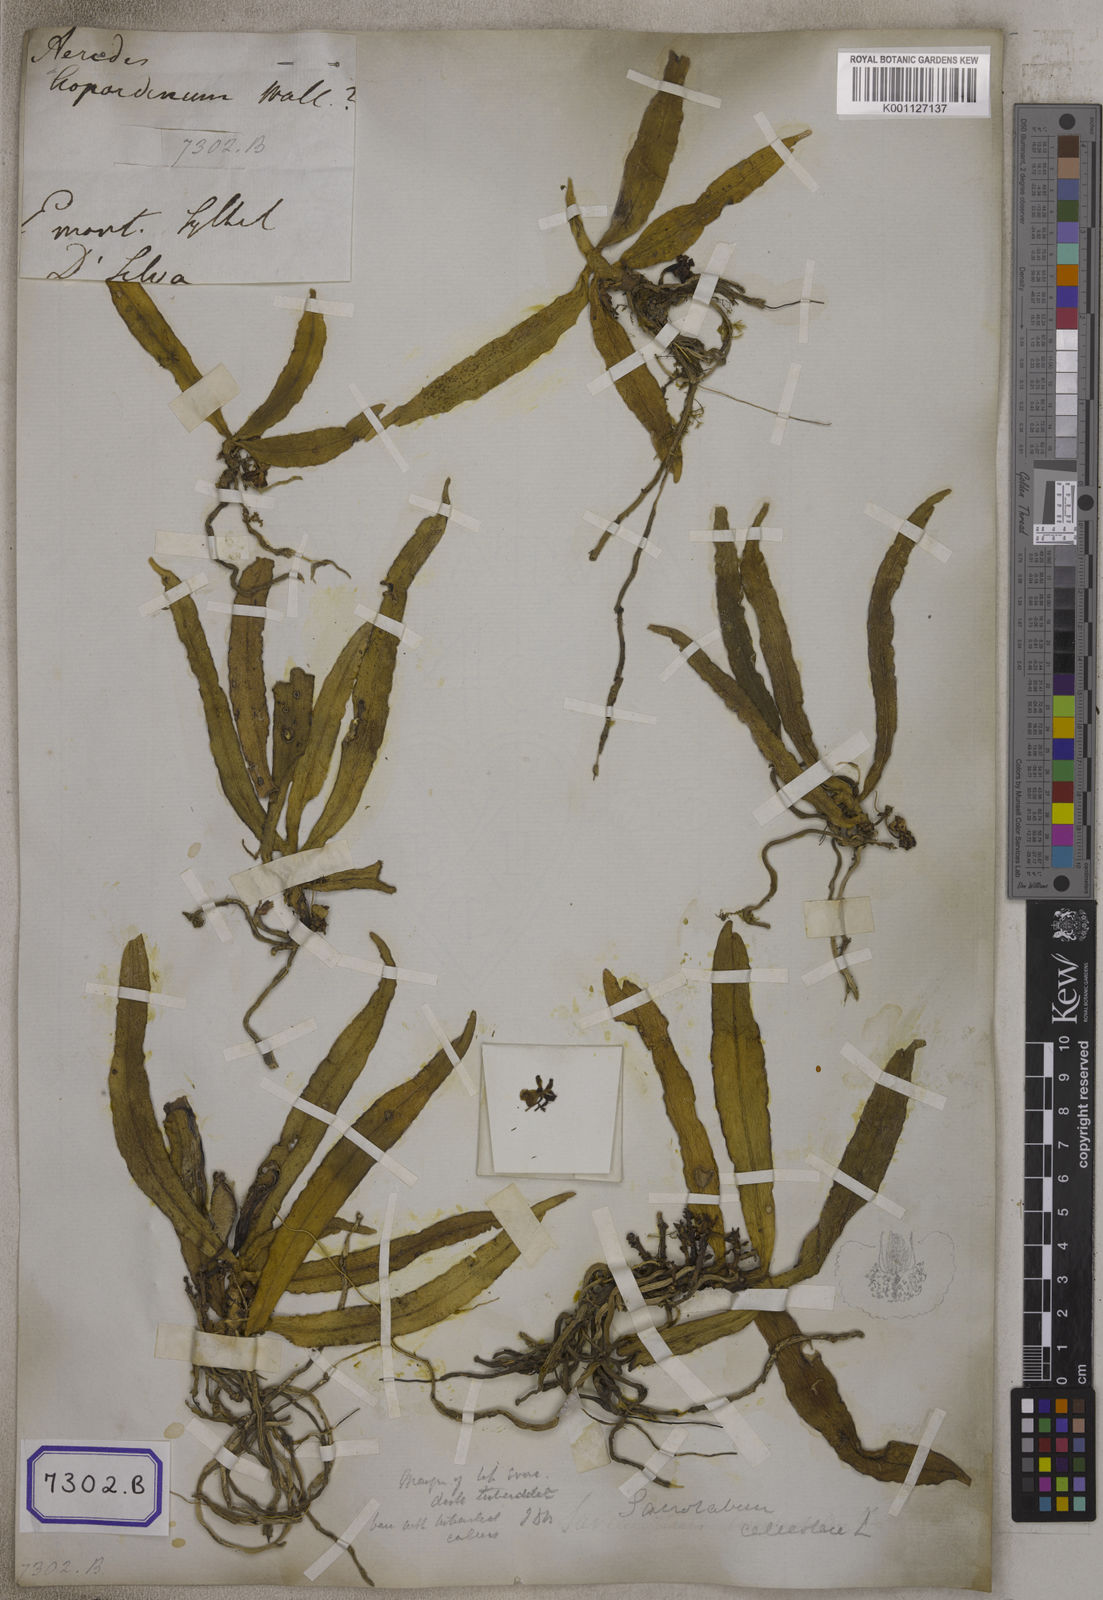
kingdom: Plantae
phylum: Tracheophyta
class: Liliopsida
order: Asparagales
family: Orchidaceae
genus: Gastrochilus
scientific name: Gastrochilus calceolaris
